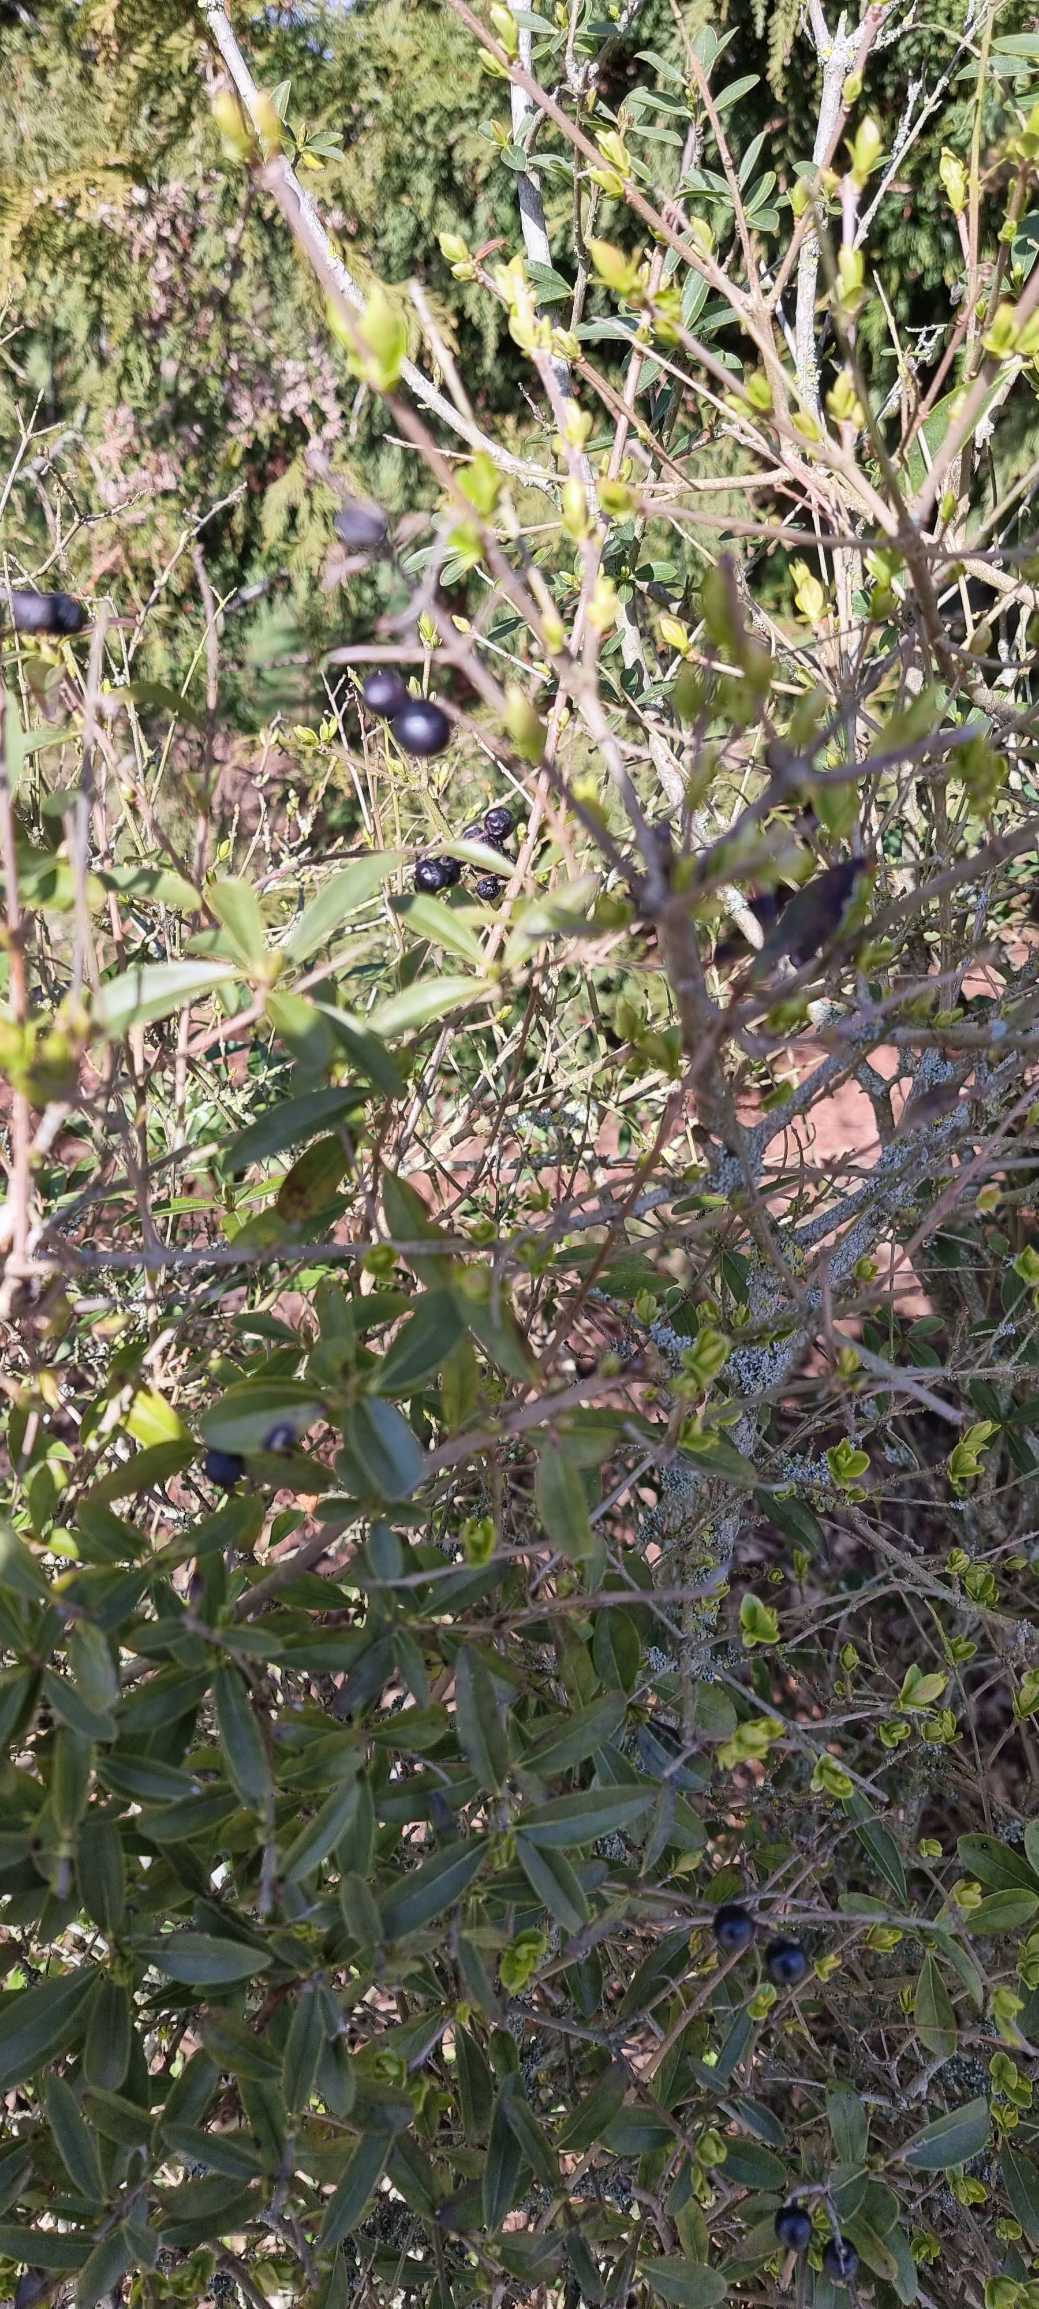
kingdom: Plantae
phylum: Tracheophyta
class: Magnoliopsida
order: Lamiales
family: Oleaceae
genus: Ligustrum
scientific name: Ligustrum vulgare
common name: Liguster
